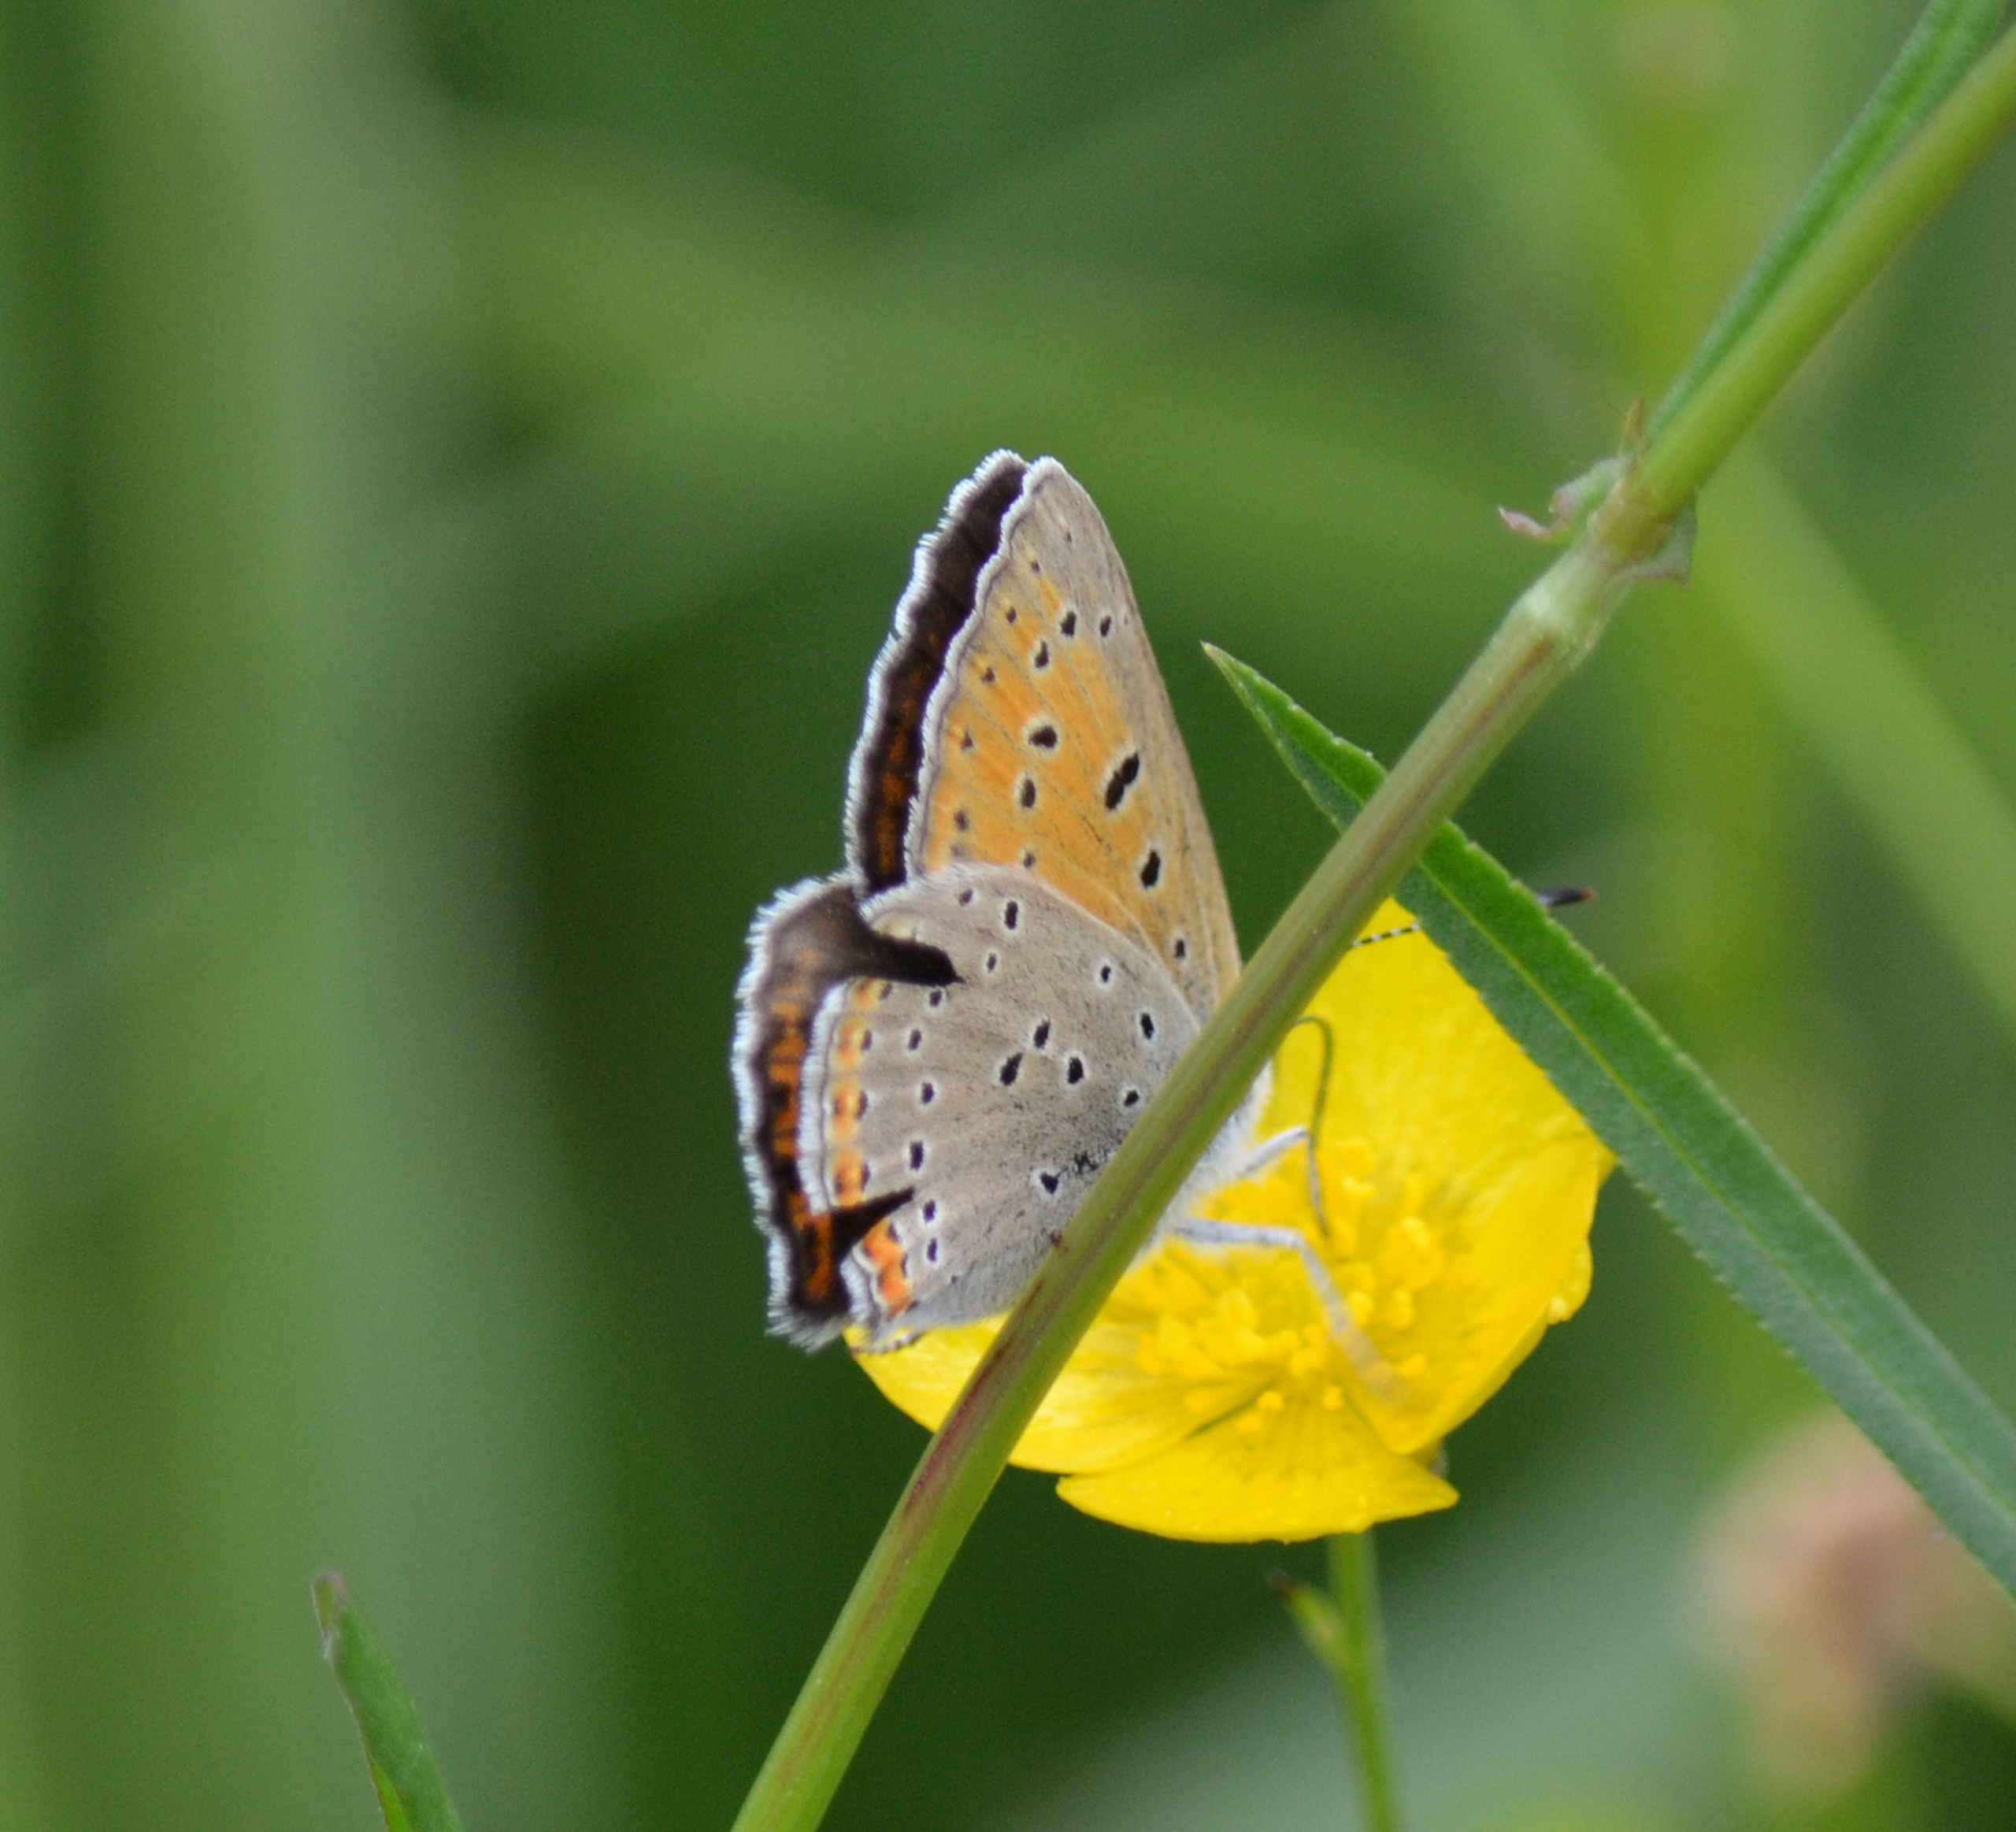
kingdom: Animalia
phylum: Arthropoda
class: Insecta
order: Lepidoptera
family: Lycaenidae
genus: Palaeochrysophanus
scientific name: Palaeochrysophanus hippothoe
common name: Violetrandet ildfugl
